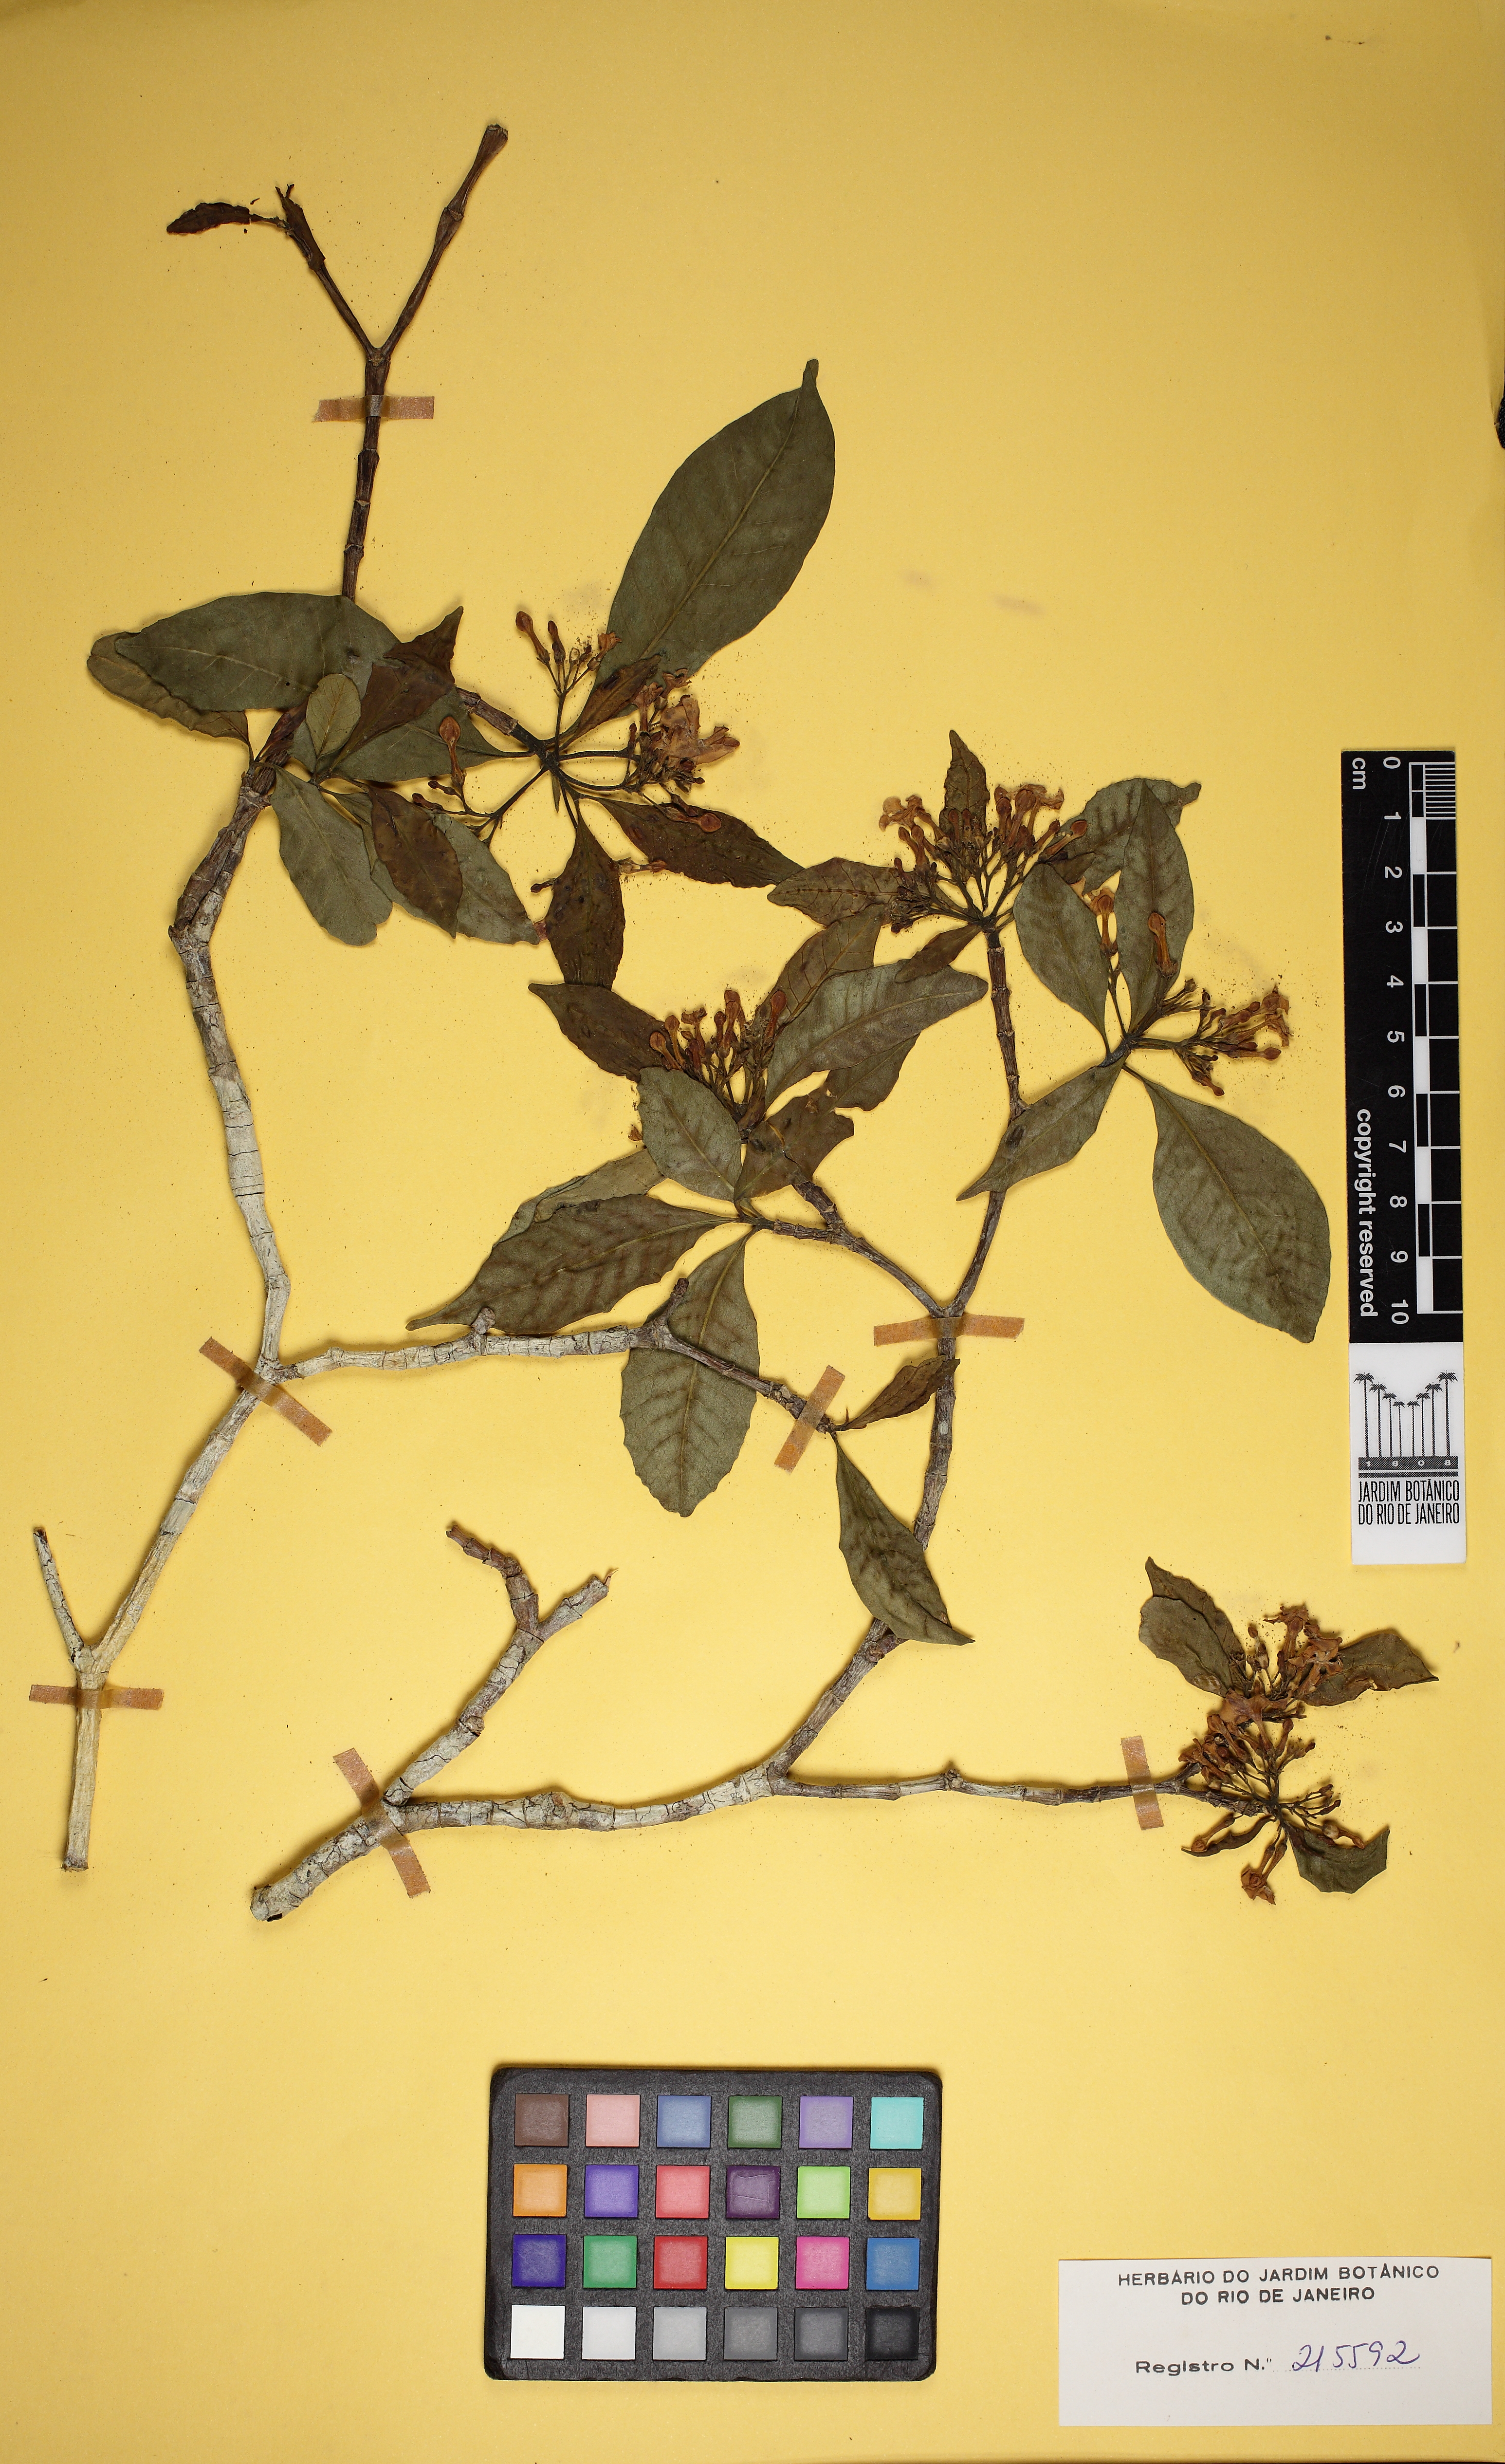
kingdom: Plantae
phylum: Tracheophyta
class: Magnoliopsida
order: Gentianales
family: Apocynaceae
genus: Tabernaemontana
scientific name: Tabernaemontana
